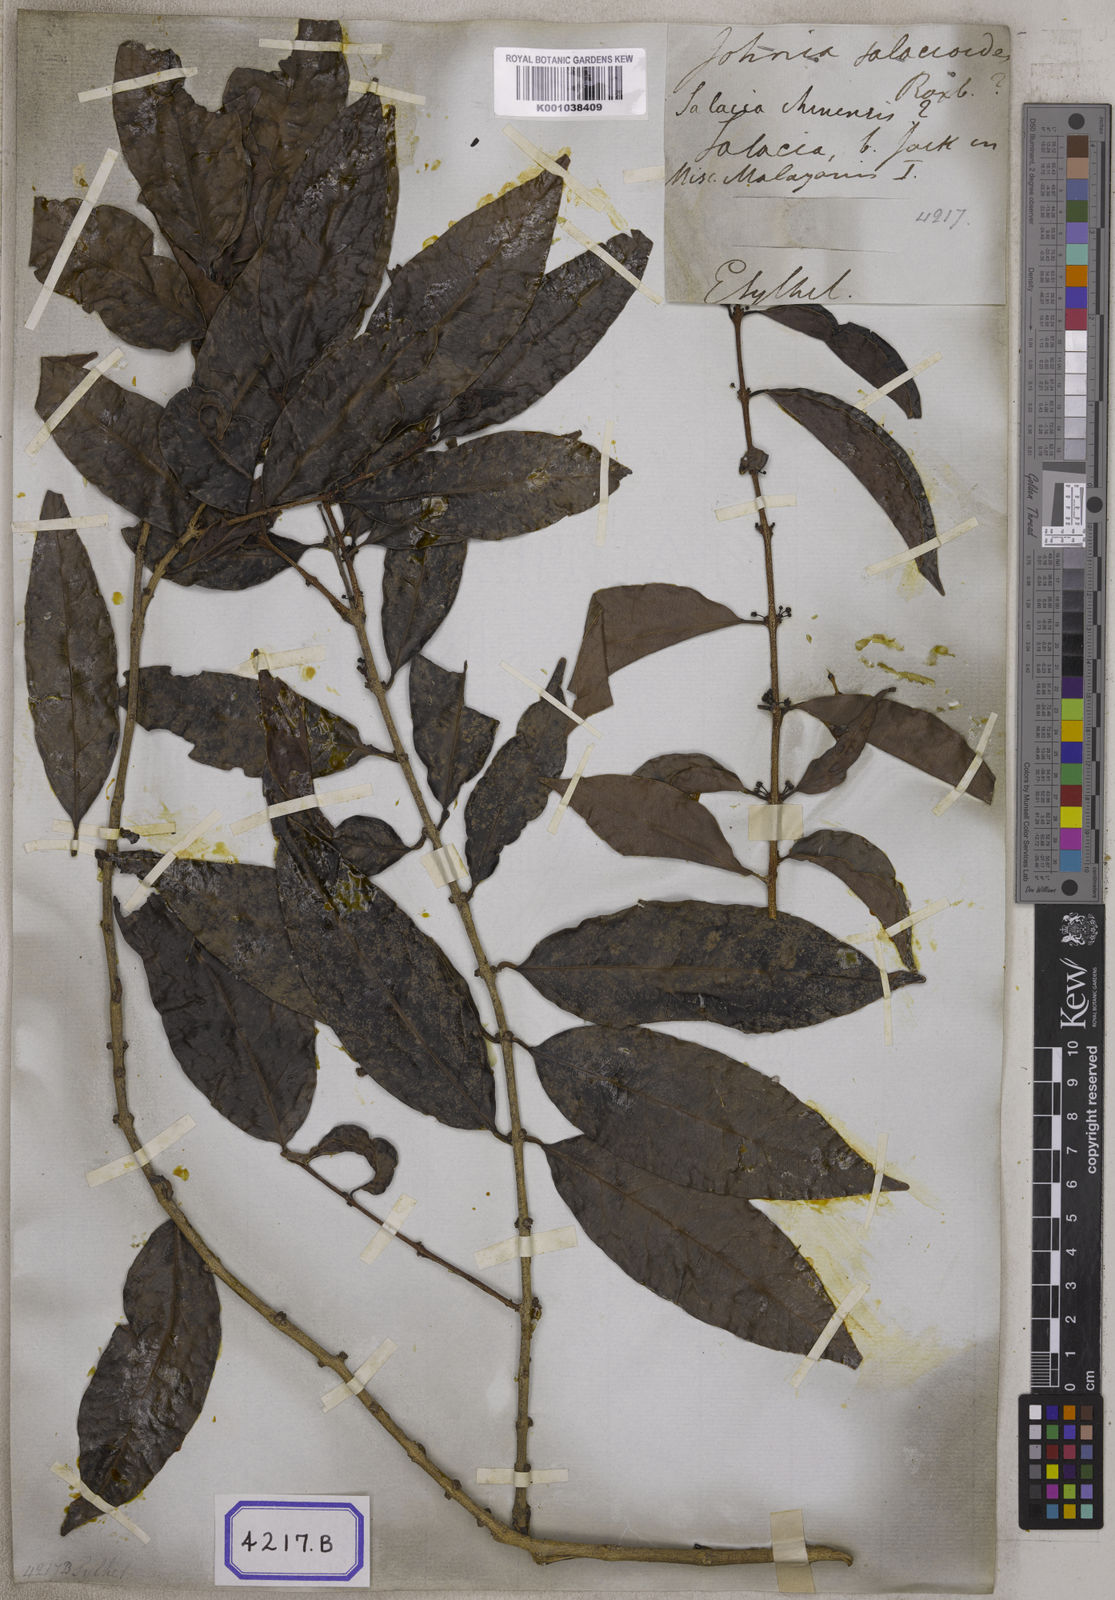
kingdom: Plantae
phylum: Tracheophyta
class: Magnoliopsida
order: Celastrales
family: Celastraceae
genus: Salacia
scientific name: Salacia
